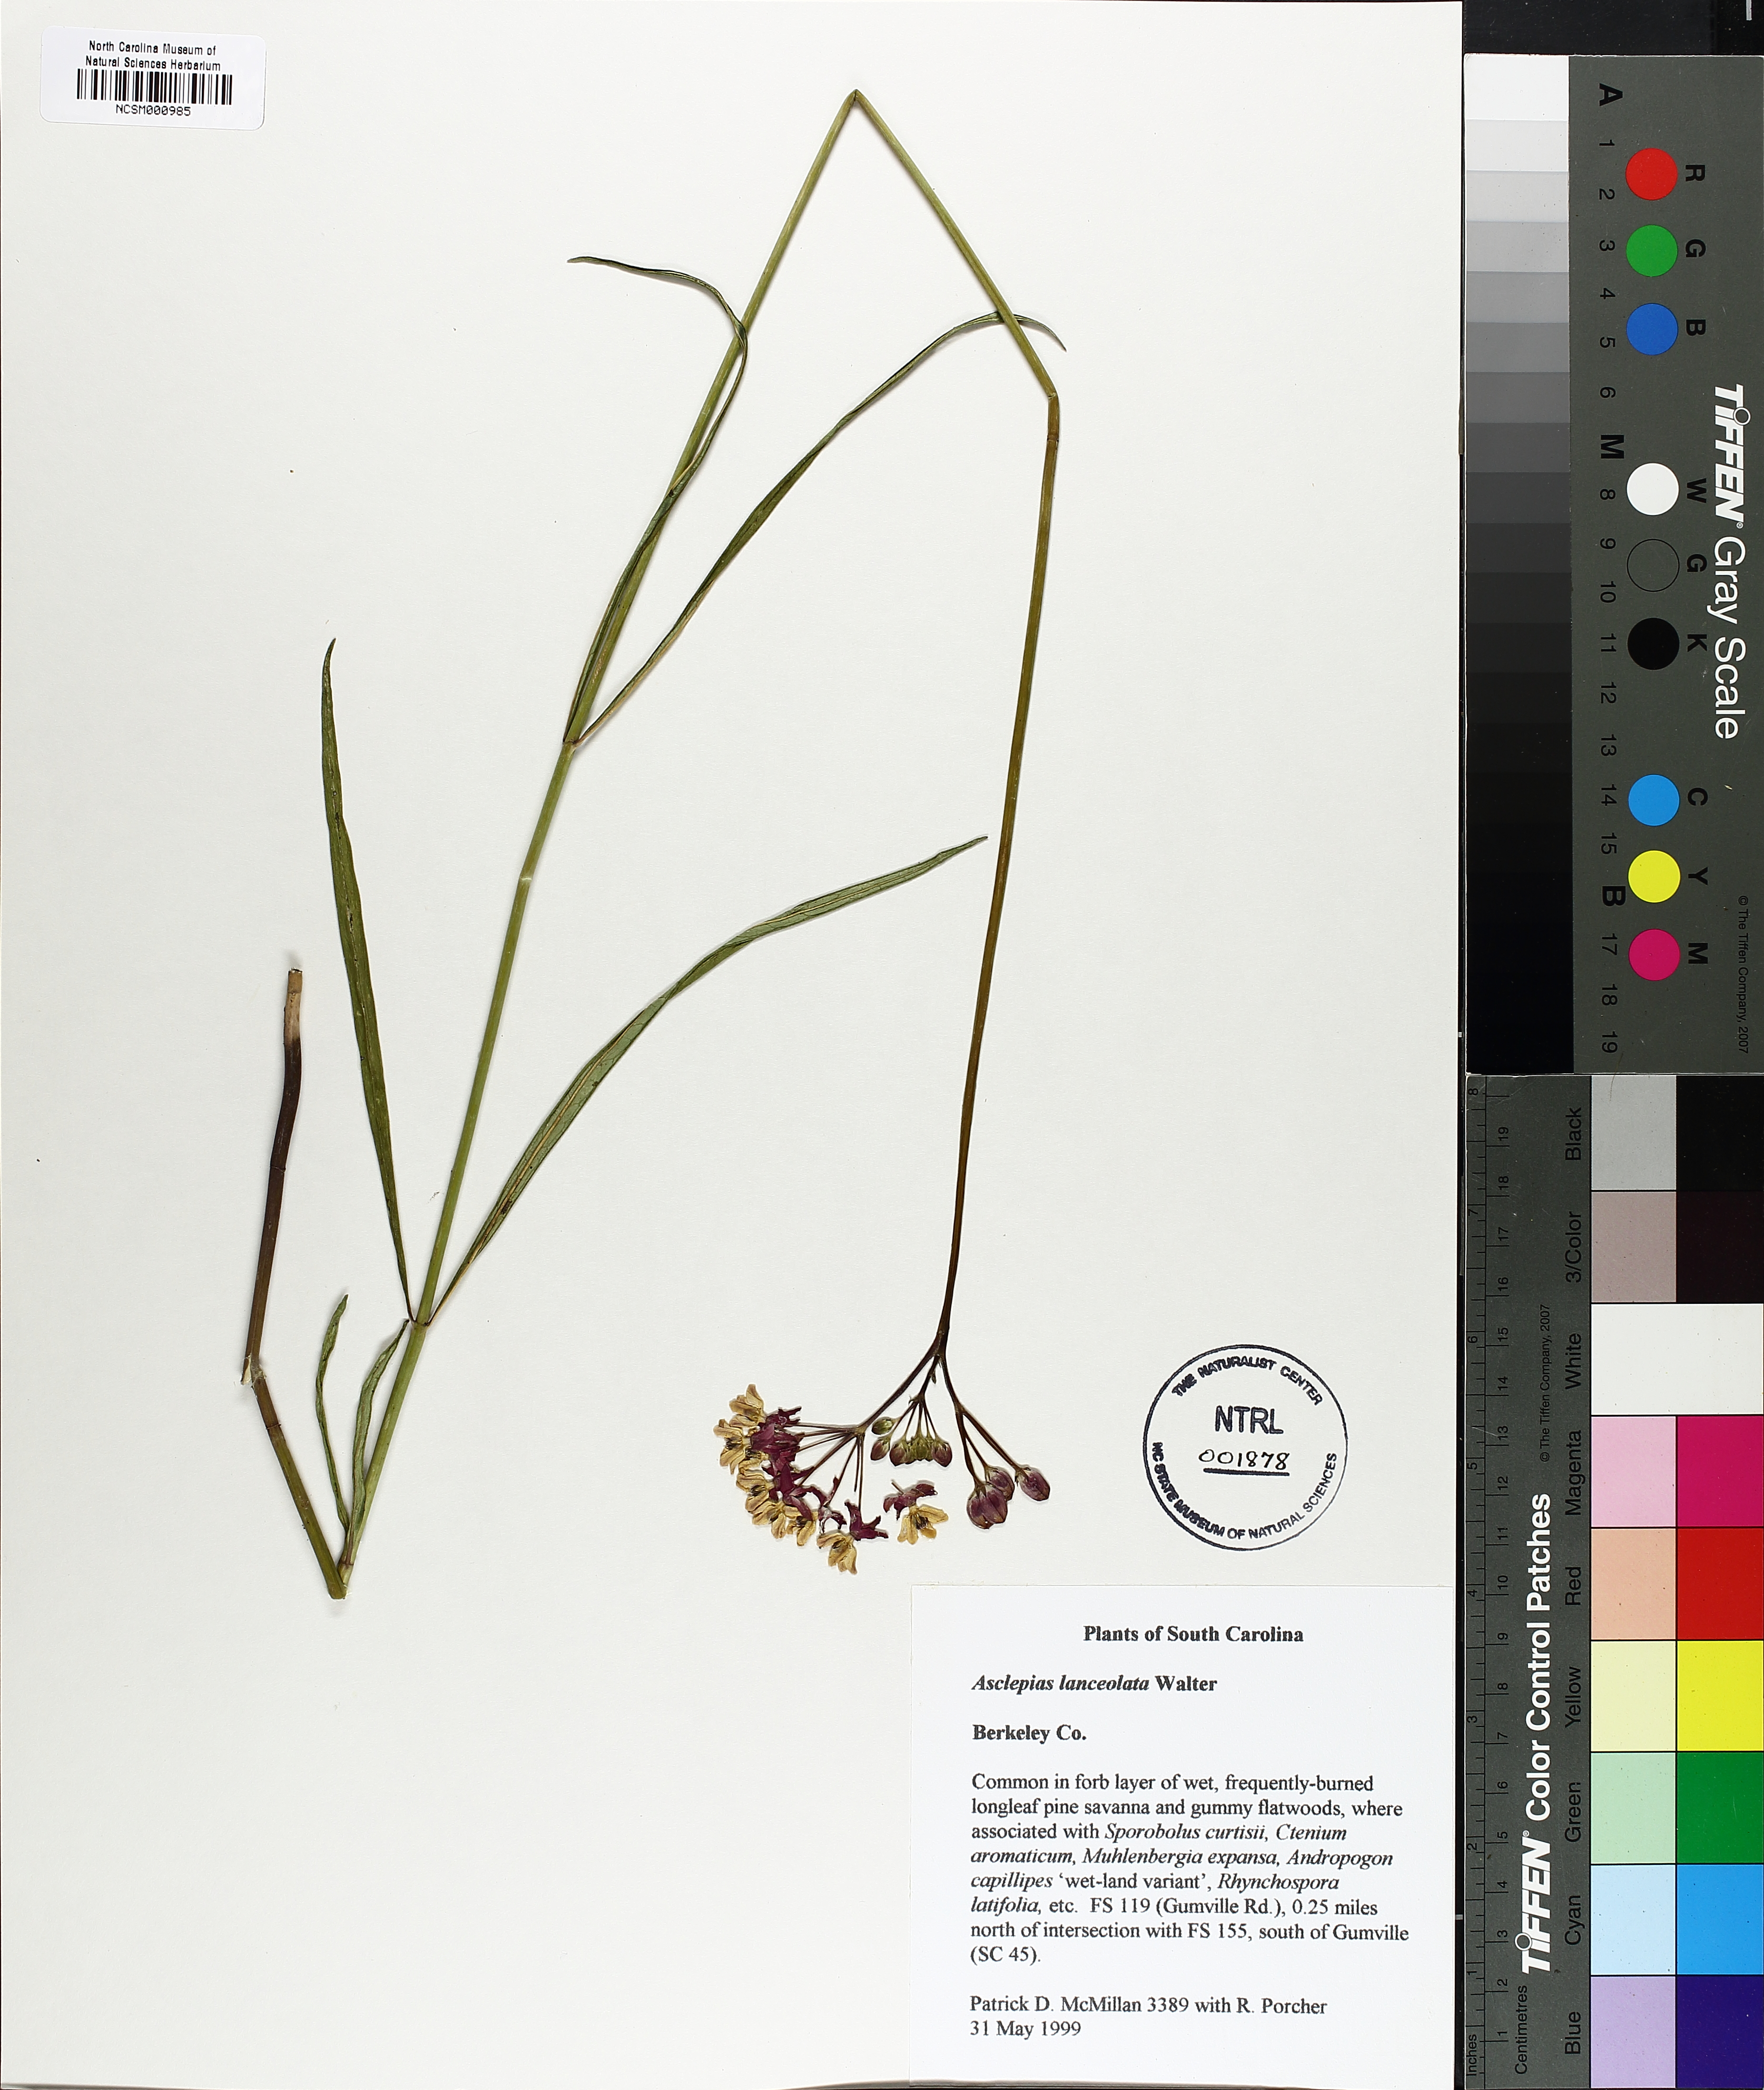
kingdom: Plantae
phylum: Tracheophyta
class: Magnoliopsida
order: Gentianales
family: Apocynaceae
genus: Asclepias
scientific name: Asclepias lanceolata
